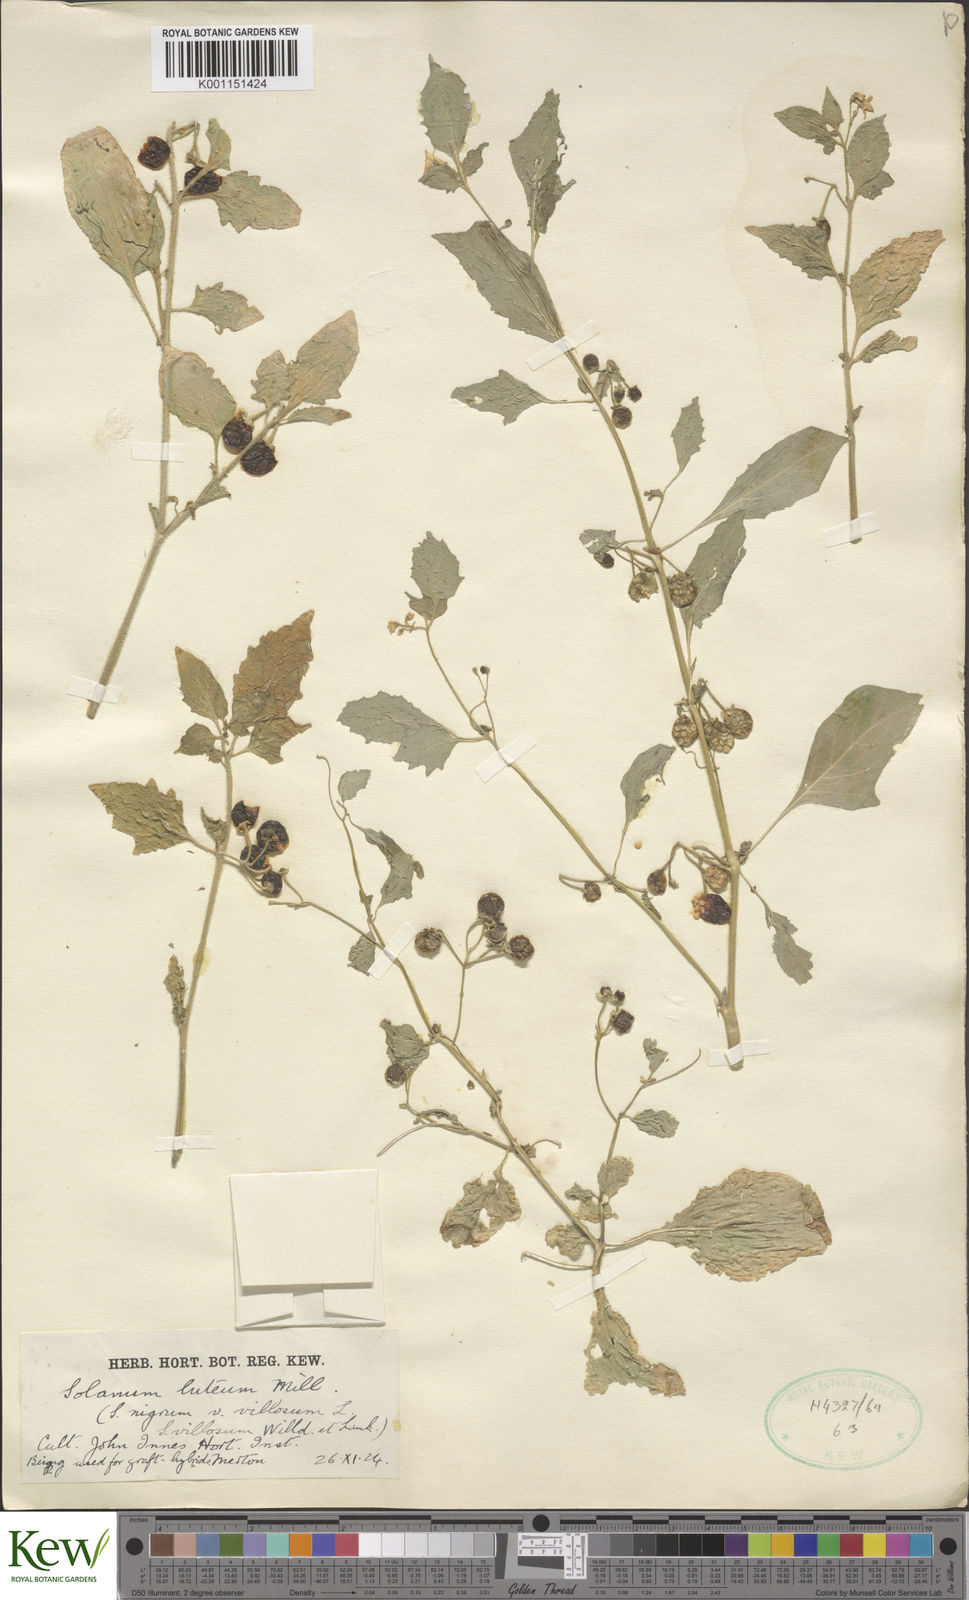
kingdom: Plantae
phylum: Tracheophyta
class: Magnoliopsida
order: Solanales
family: Solanaceae
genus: Solanum
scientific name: Solanum villosum
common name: Red nightshade
